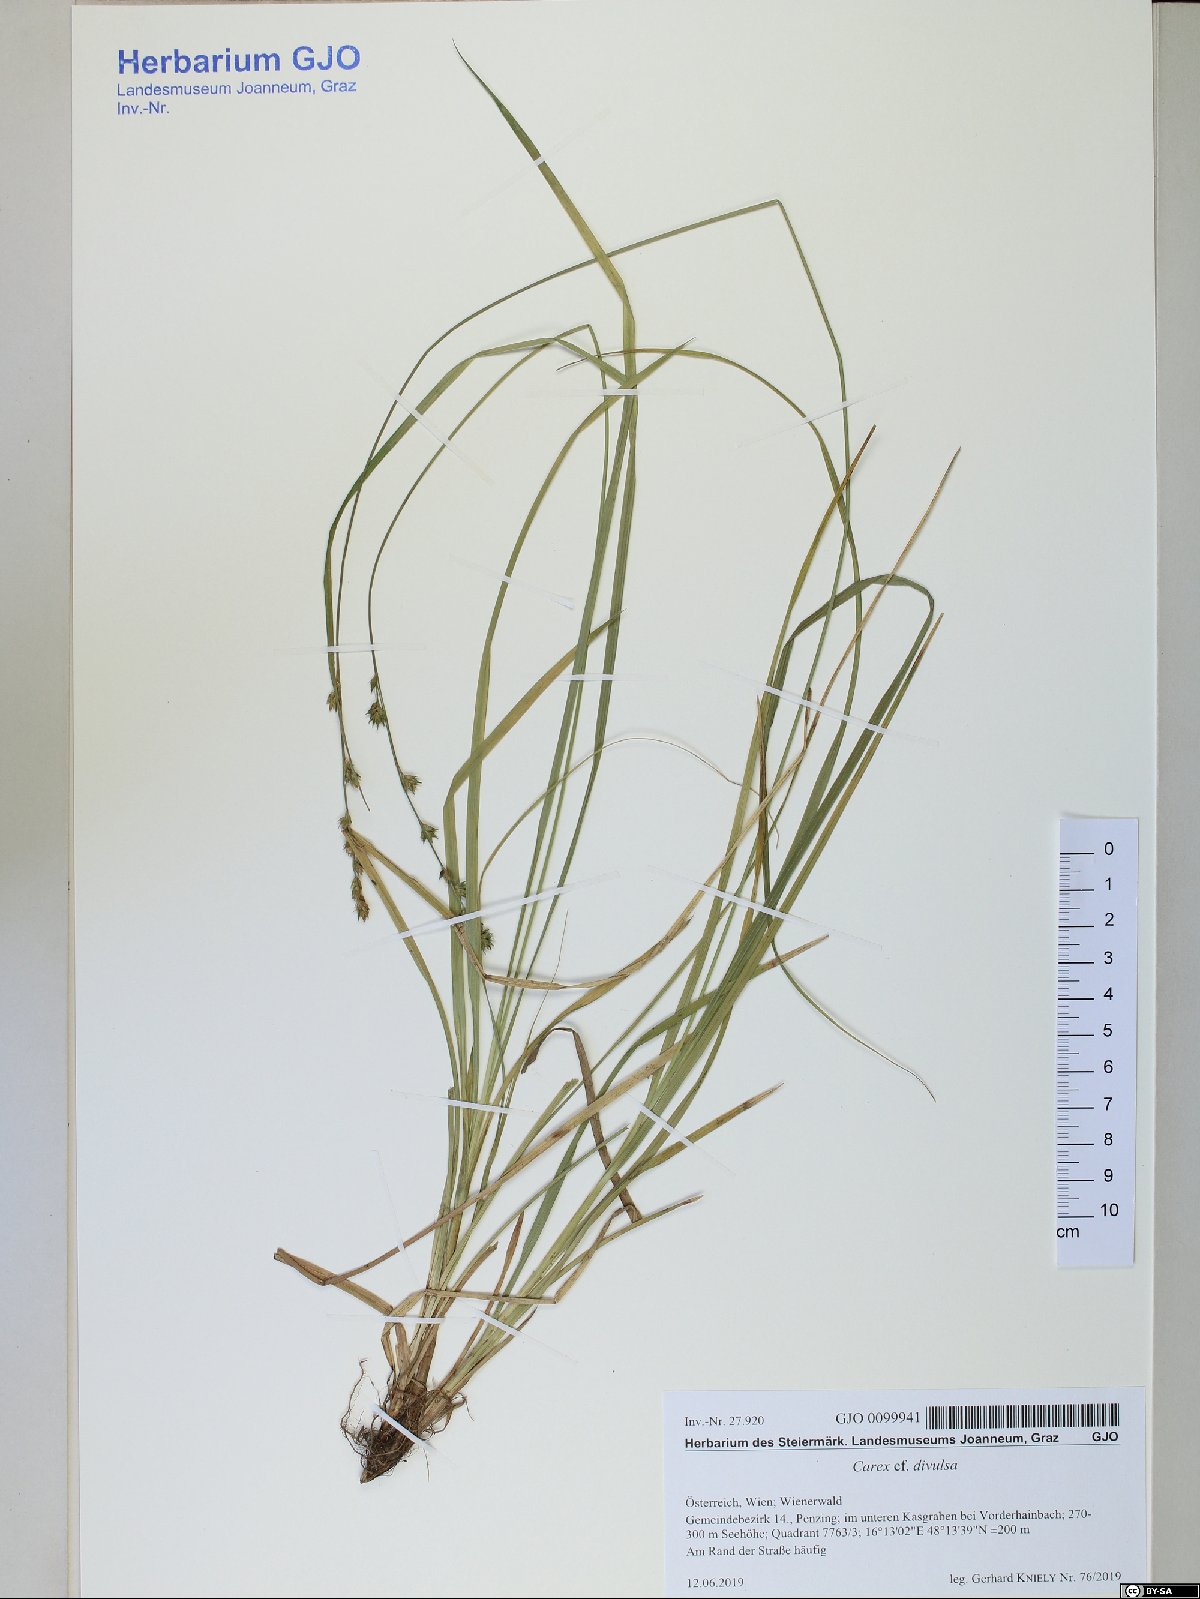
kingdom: Plantae
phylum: Tracheophyta
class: Liliopsida
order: Poales
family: Cyperaceae
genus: Carex
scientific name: Carex divulsa
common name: Grassland sedge
